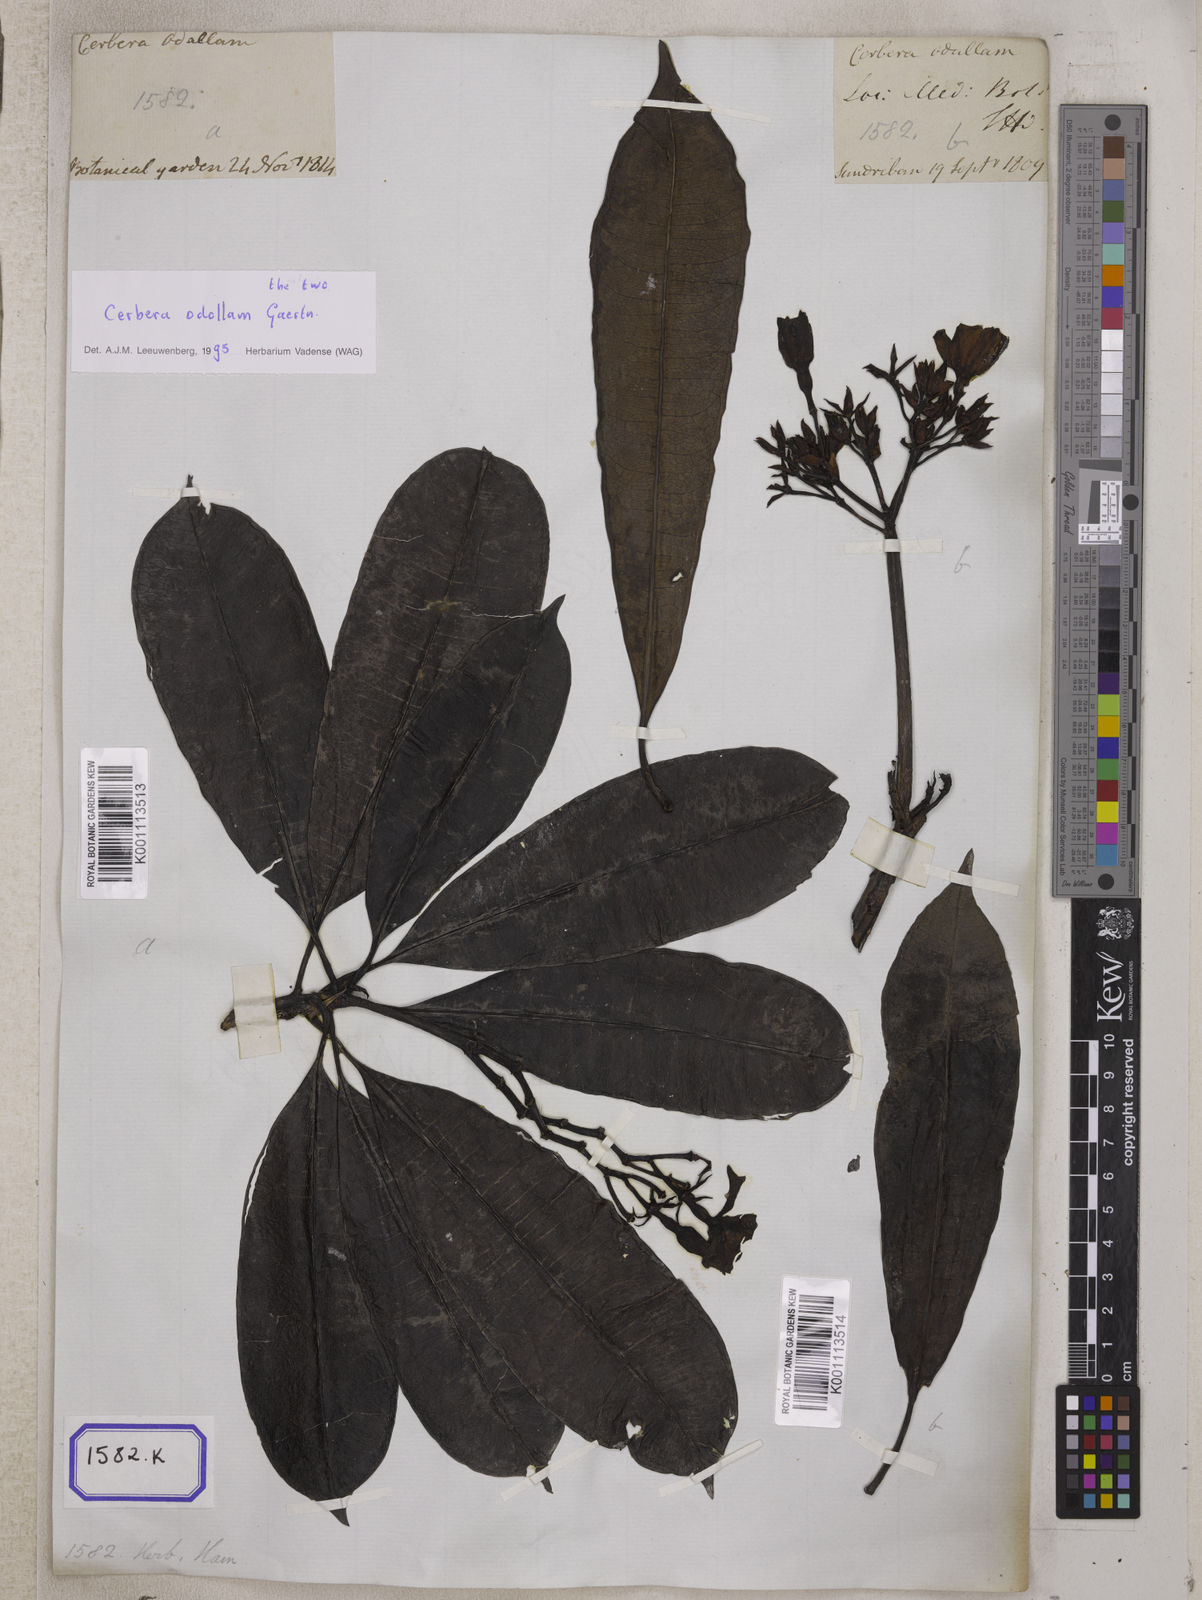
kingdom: Plantae
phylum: Tracheophyta
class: Magnoliopsida
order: Gentianales
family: Apocynaceae
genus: Cerbera
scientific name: Cerbera manghas
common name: Reva
